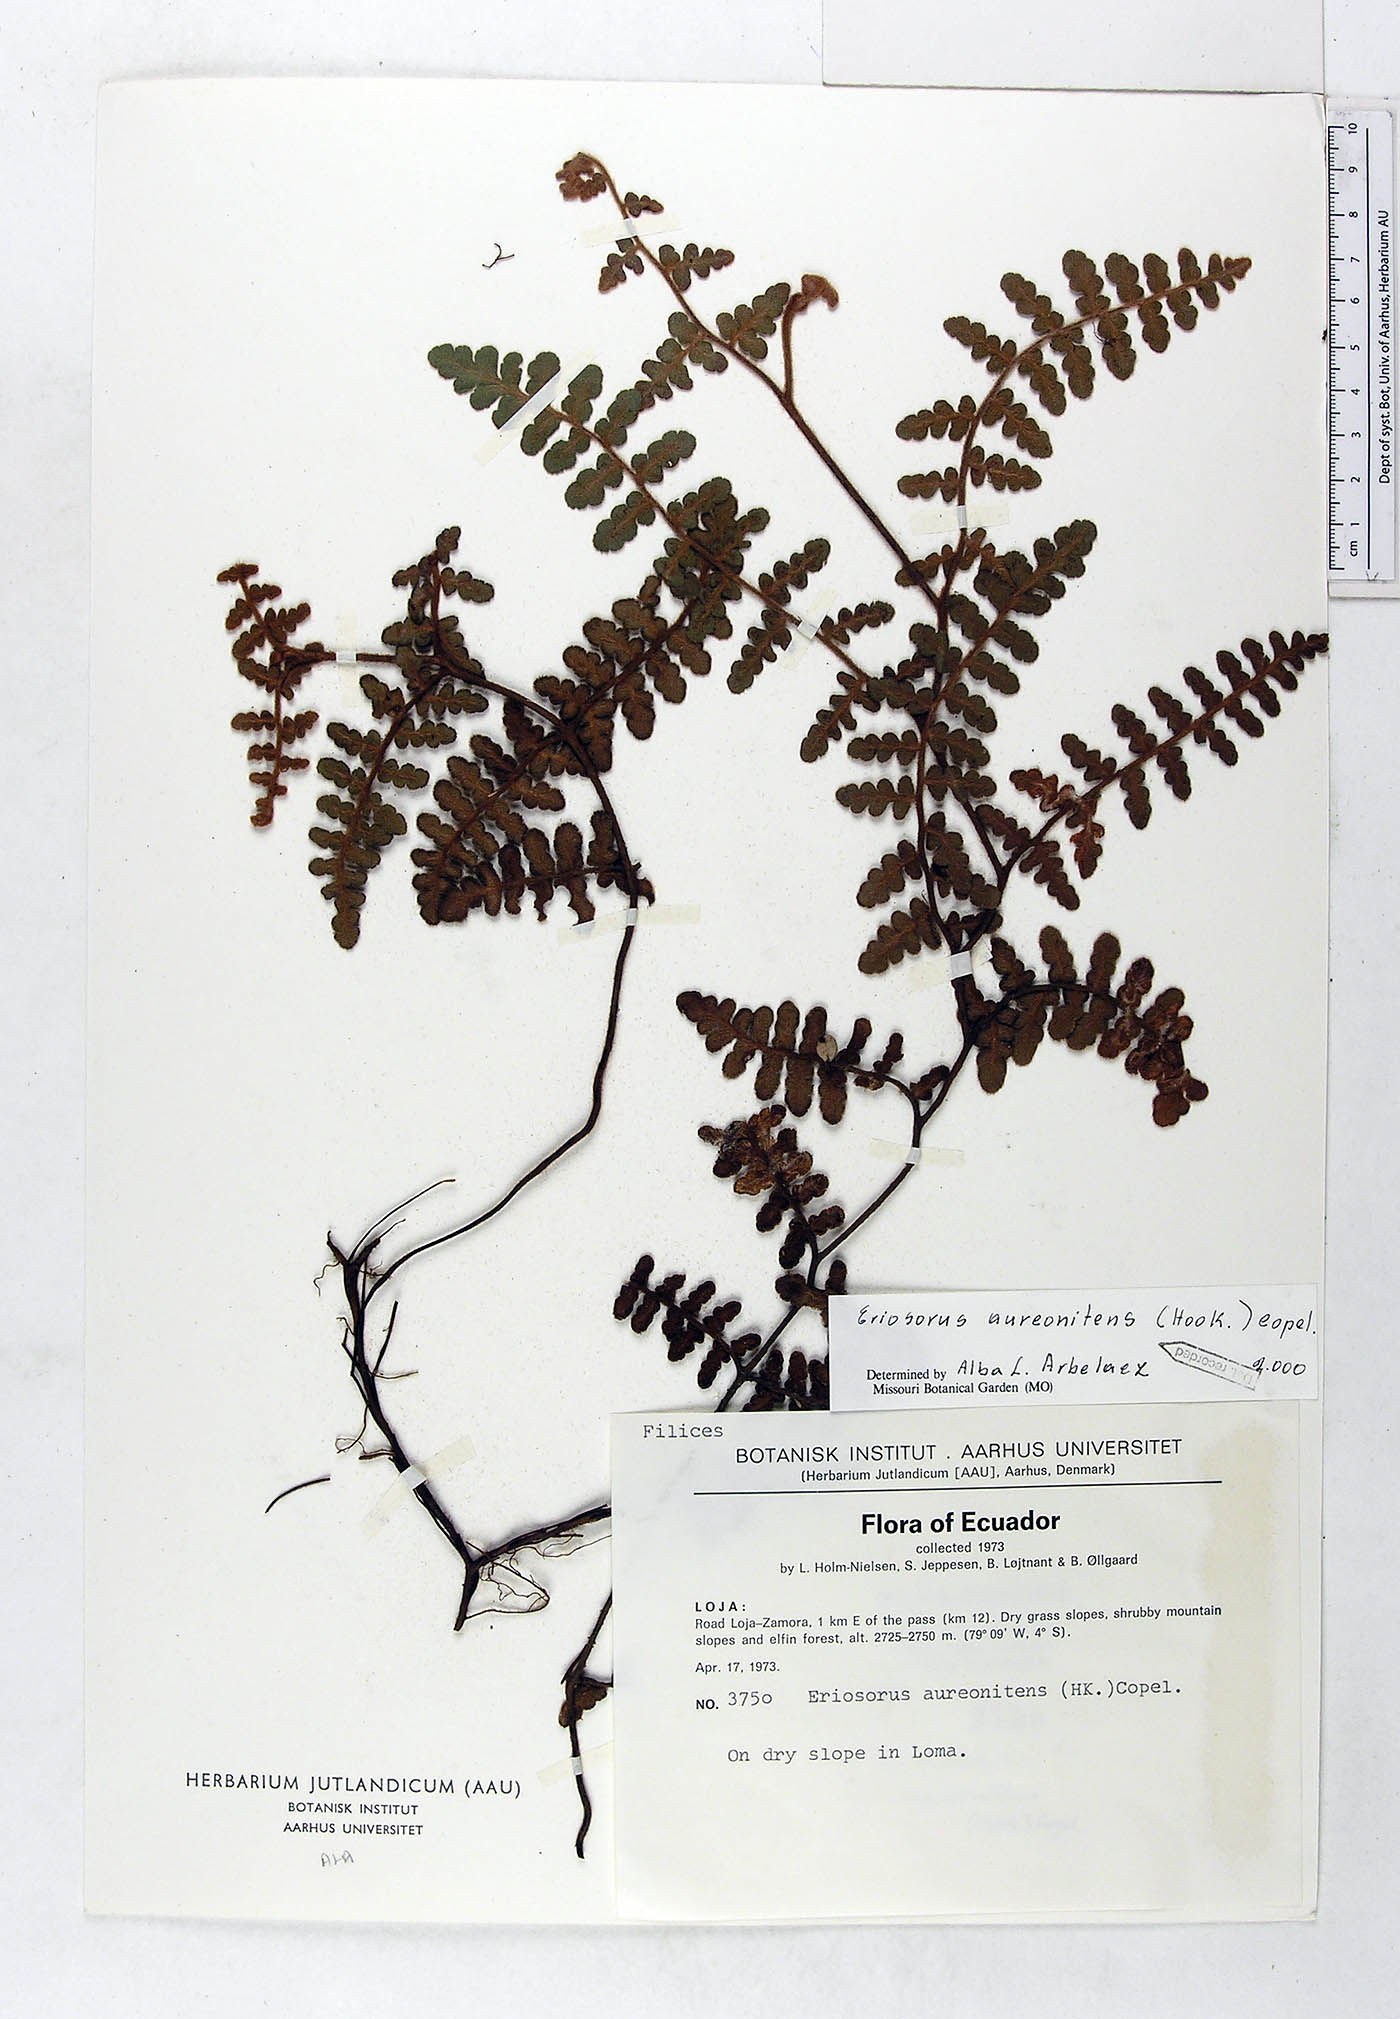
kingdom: Plantae
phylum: Tracheophyta
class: Polypodiopsida
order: Polypodiales
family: Pteridaceae
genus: Jamesonia
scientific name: Jamesonia aureonitens
